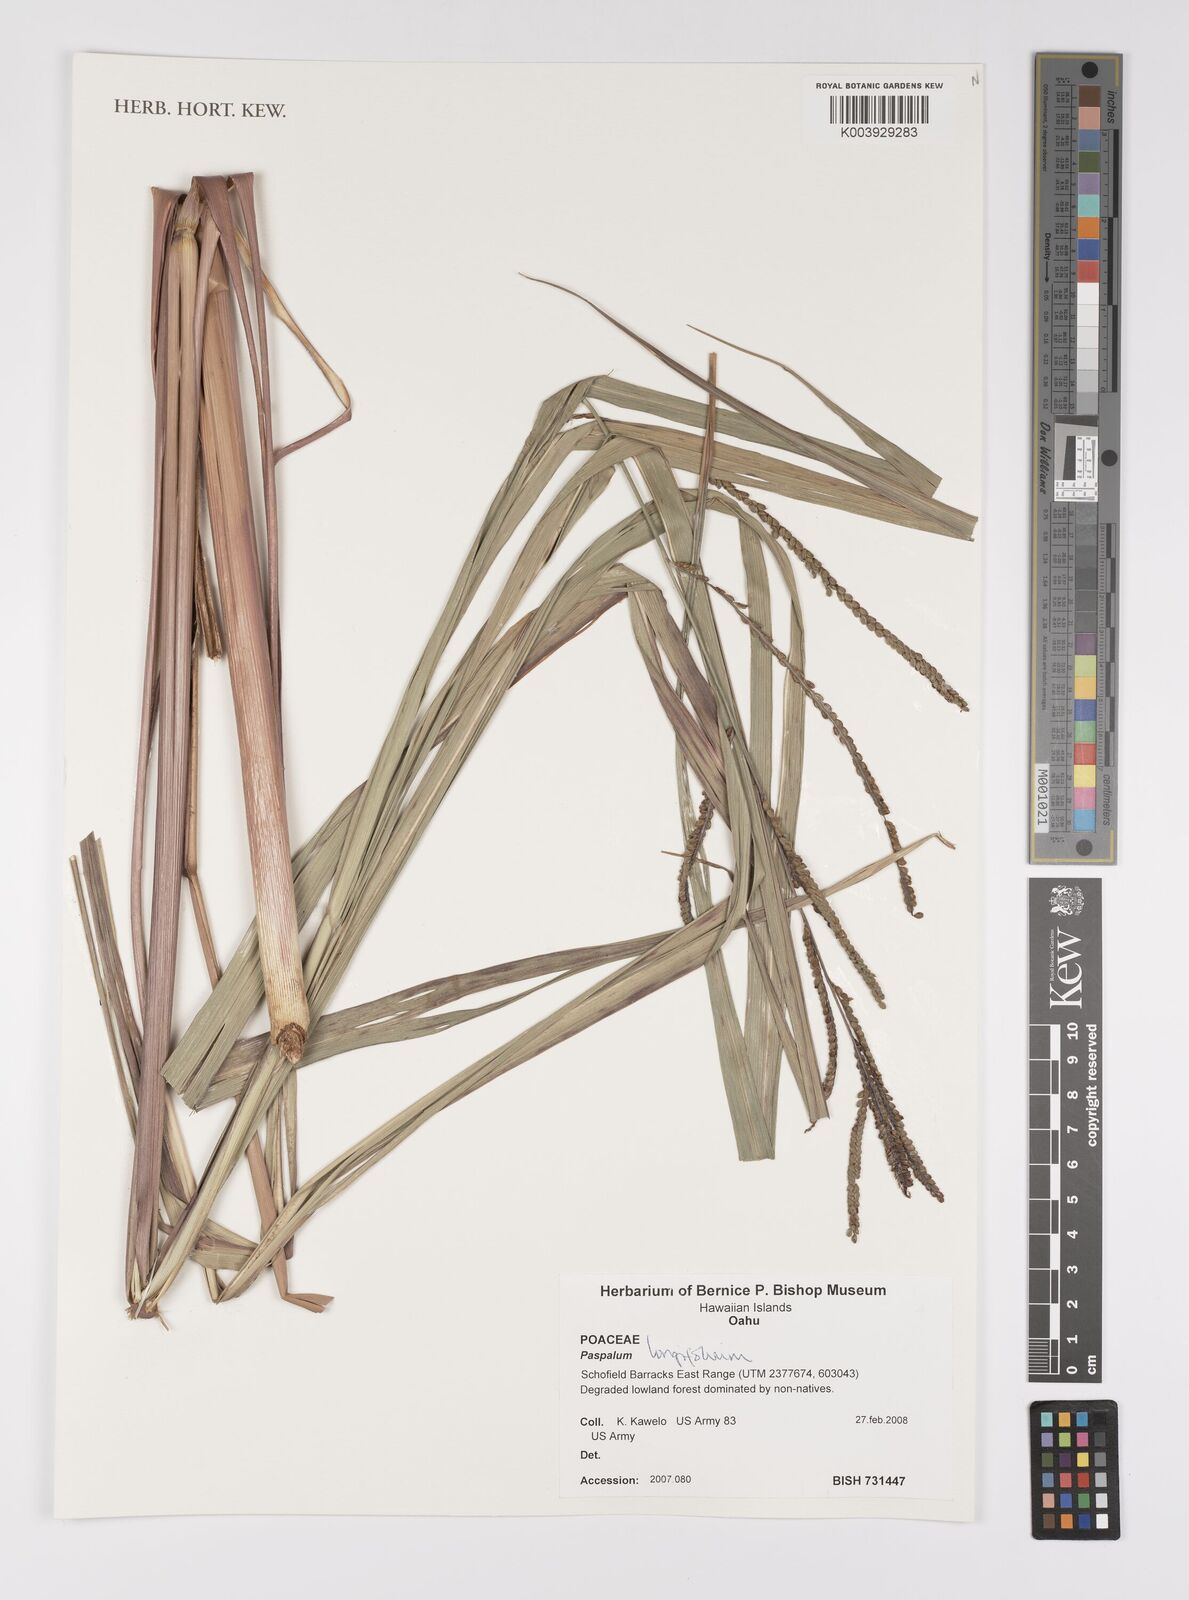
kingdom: Plantae
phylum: Tracheophyta
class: Liliopsida
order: Poales
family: Poaceae
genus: Paspalum
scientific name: Paspalum
